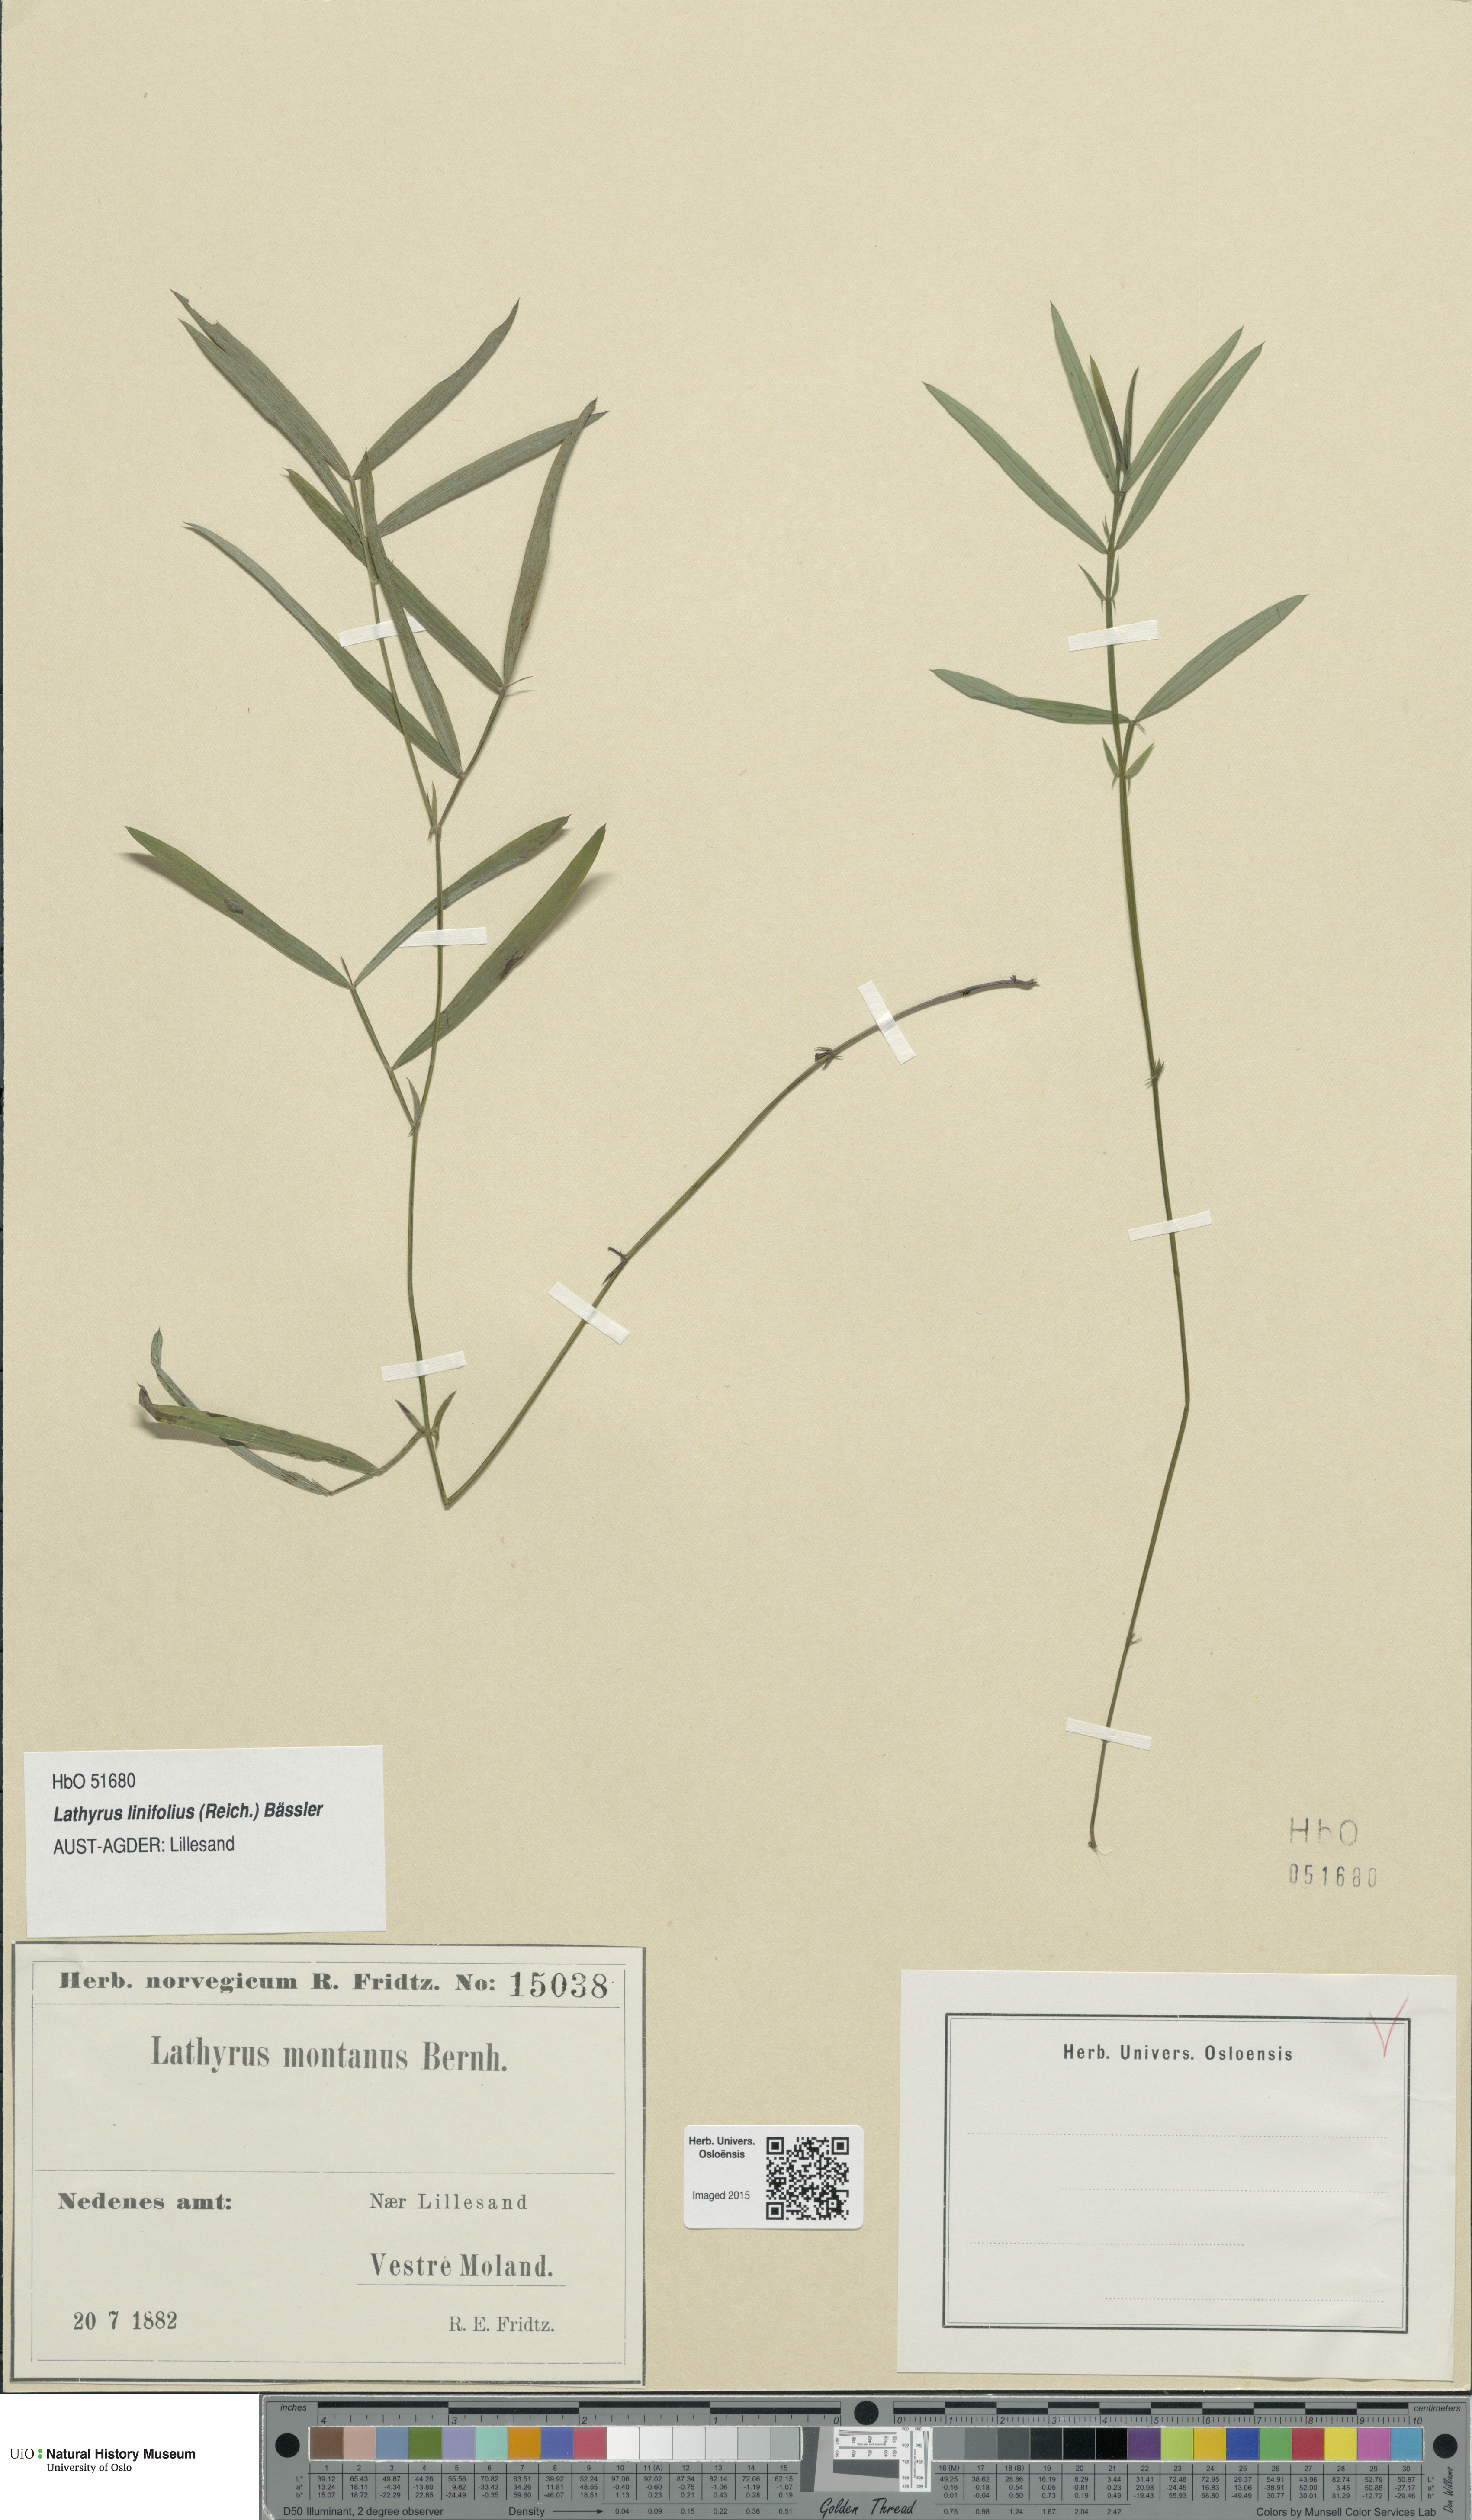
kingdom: Plantae
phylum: Tracheophyta
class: Magnoliopsida
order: Fabales
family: Fabaceae
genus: Lathyrus
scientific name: Lathyrus linifolius
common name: Bitter-vetch
